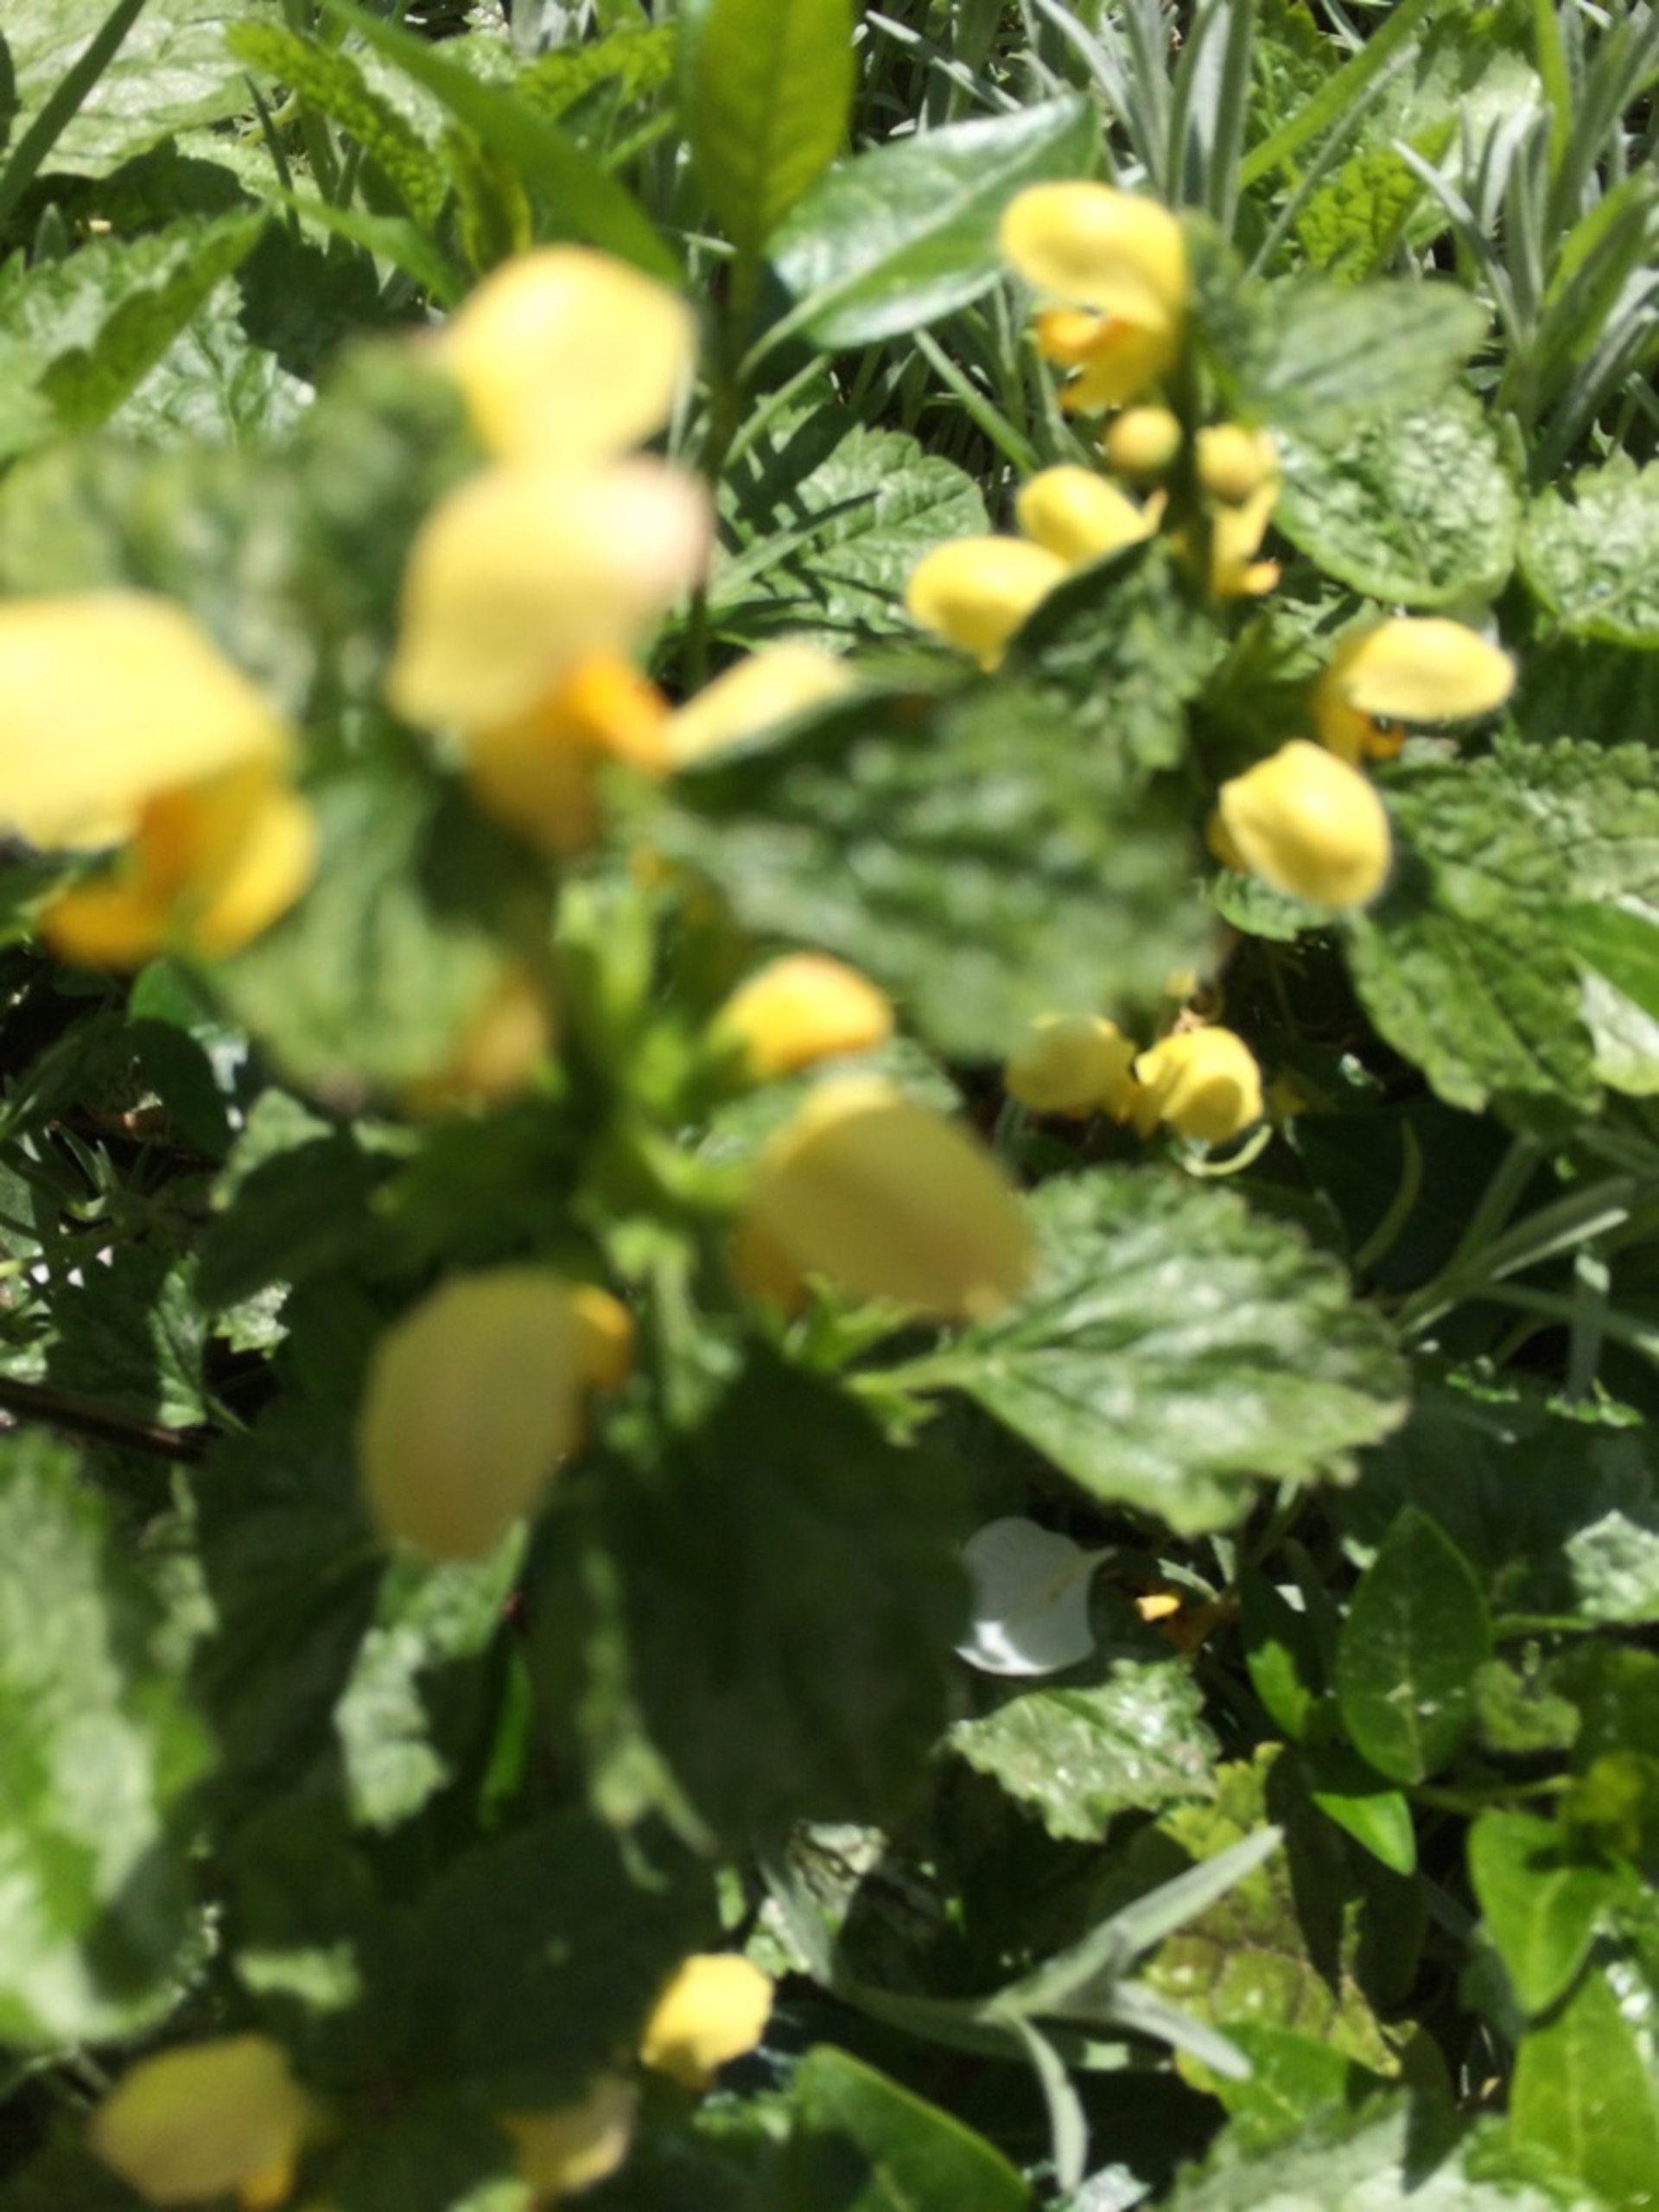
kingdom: Plantae
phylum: Tracheophyta
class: Magnoliopsida
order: Lamiales
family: Lamiaceae
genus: Lamium
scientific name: Lamium galeobdolon
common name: Guldnælde
